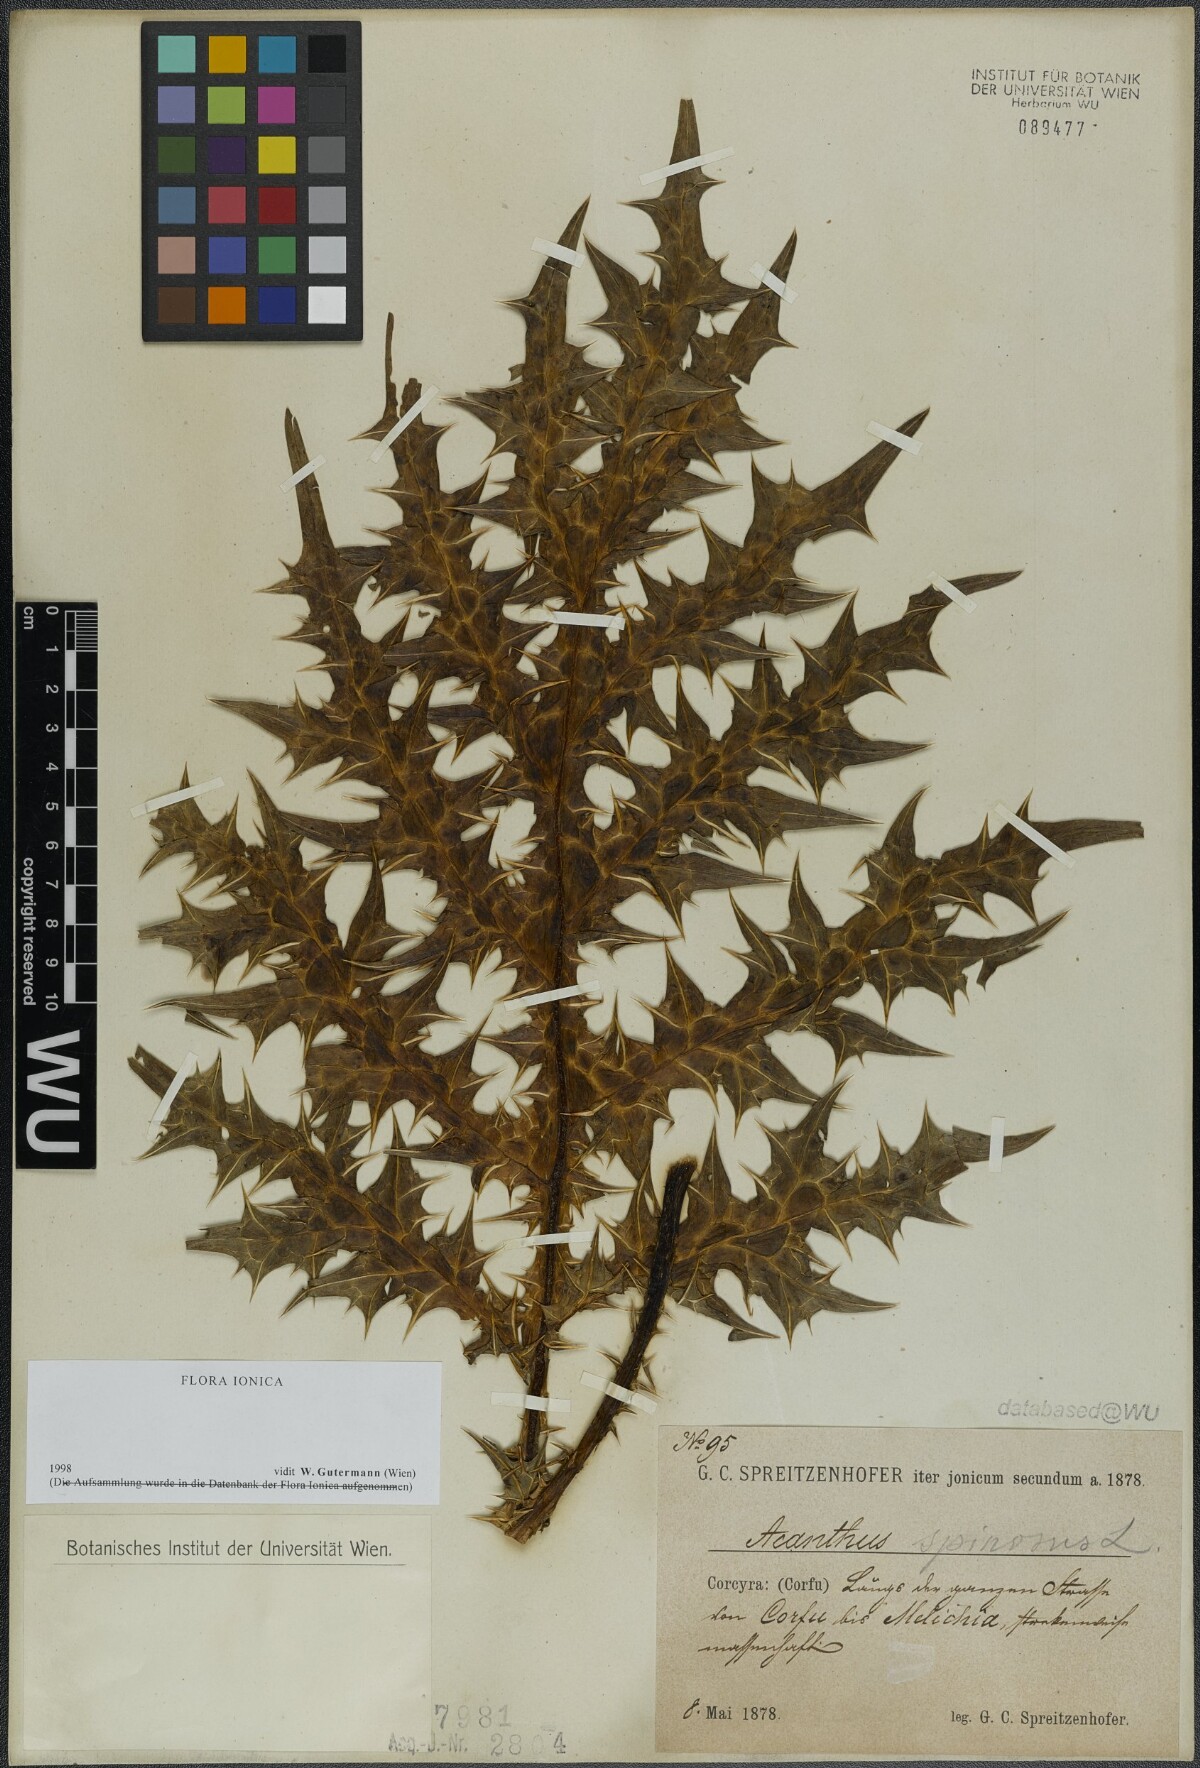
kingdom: Plantae
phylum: Tracheophyta
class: Magnoliopsida
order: Lamiales
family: Acanthaceae
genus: Acanthus
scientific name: Acanthus spinosus
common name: Spiny bear's-breech
